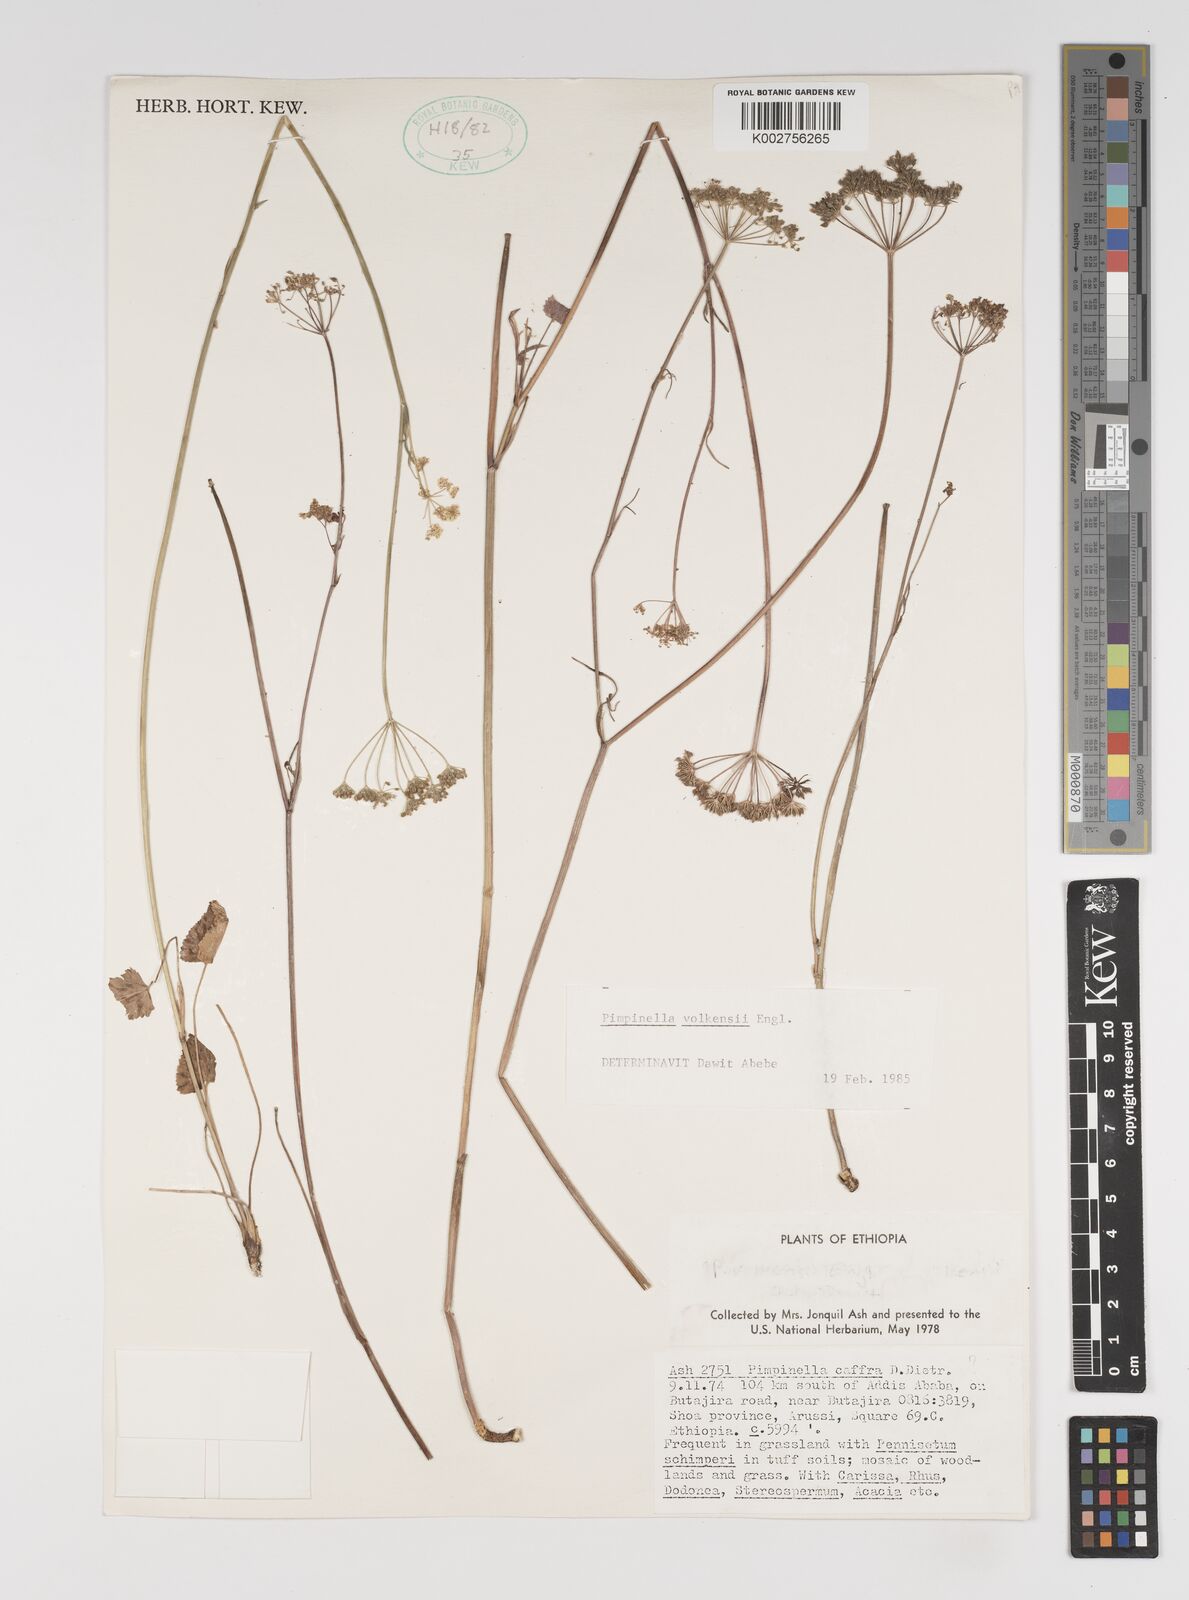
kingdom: Plantae
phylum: Tracheophyta
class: Magnoliopsida
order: Apiales
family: Apiaceae
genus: Pimpinella
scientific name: Pimpinella hirtella
